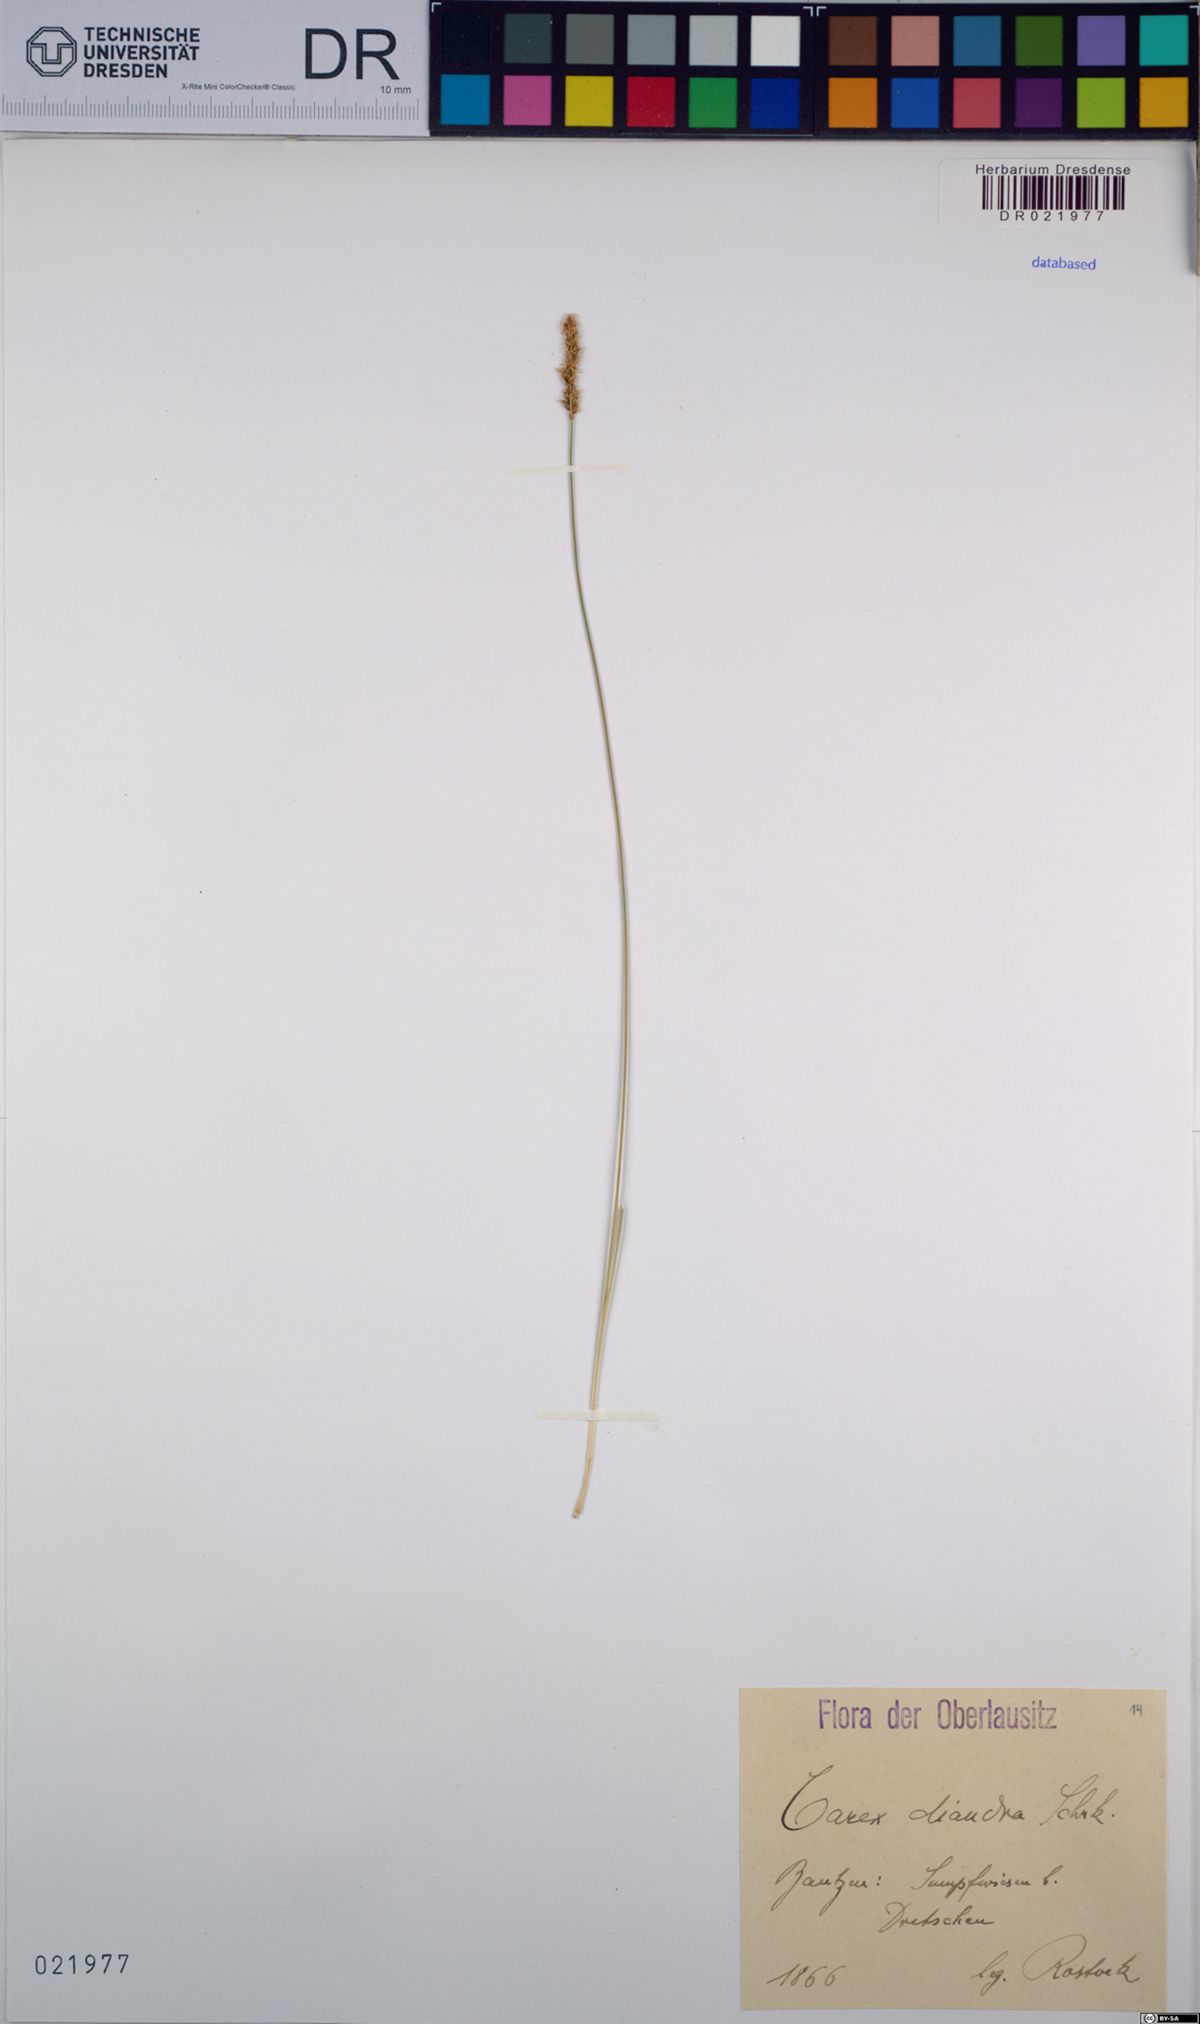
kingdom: Plantae
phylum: Tracheophyta
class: Liliopsida
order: Poales
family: Cyperaceae
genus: Carex
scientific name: Carex diandra
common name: Lesser tussock-sedge
